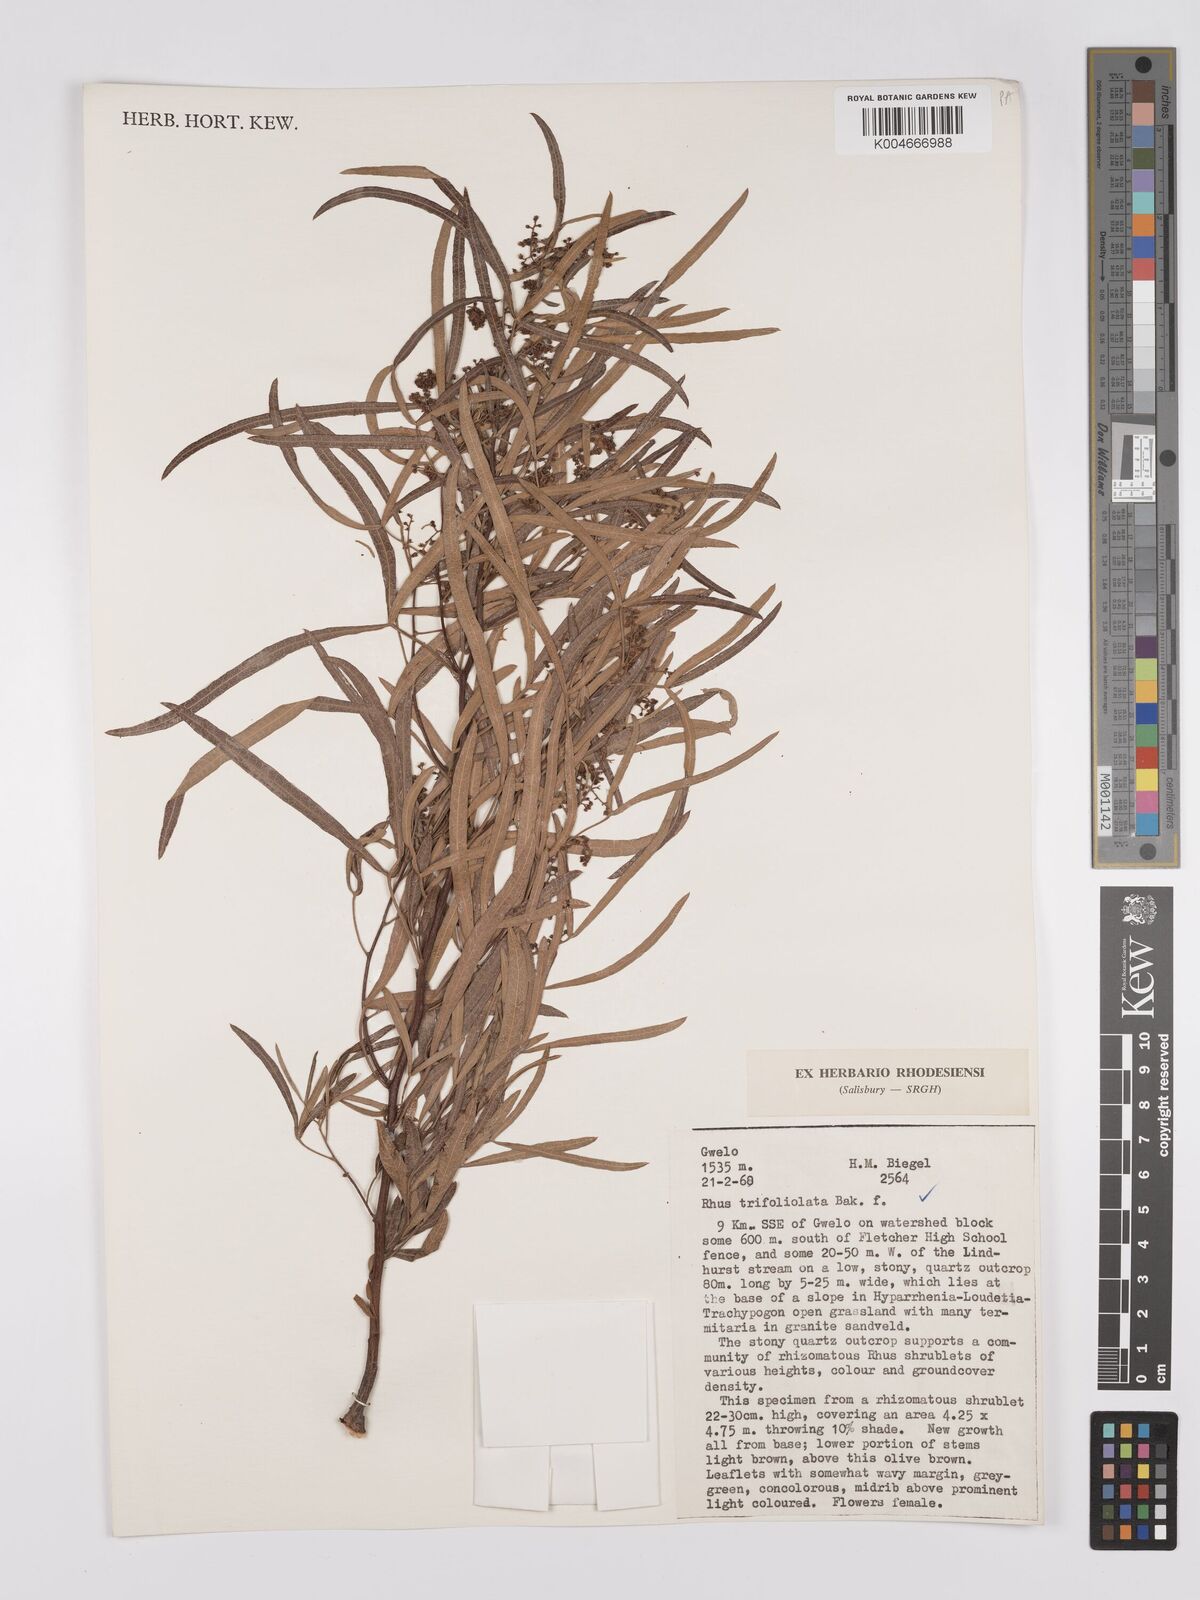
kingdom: Plantae
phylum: Tracheophyta
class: Magnoliopsida
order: Sapindales
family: Anacardiaceae
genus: Rhus
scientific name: Rhus
